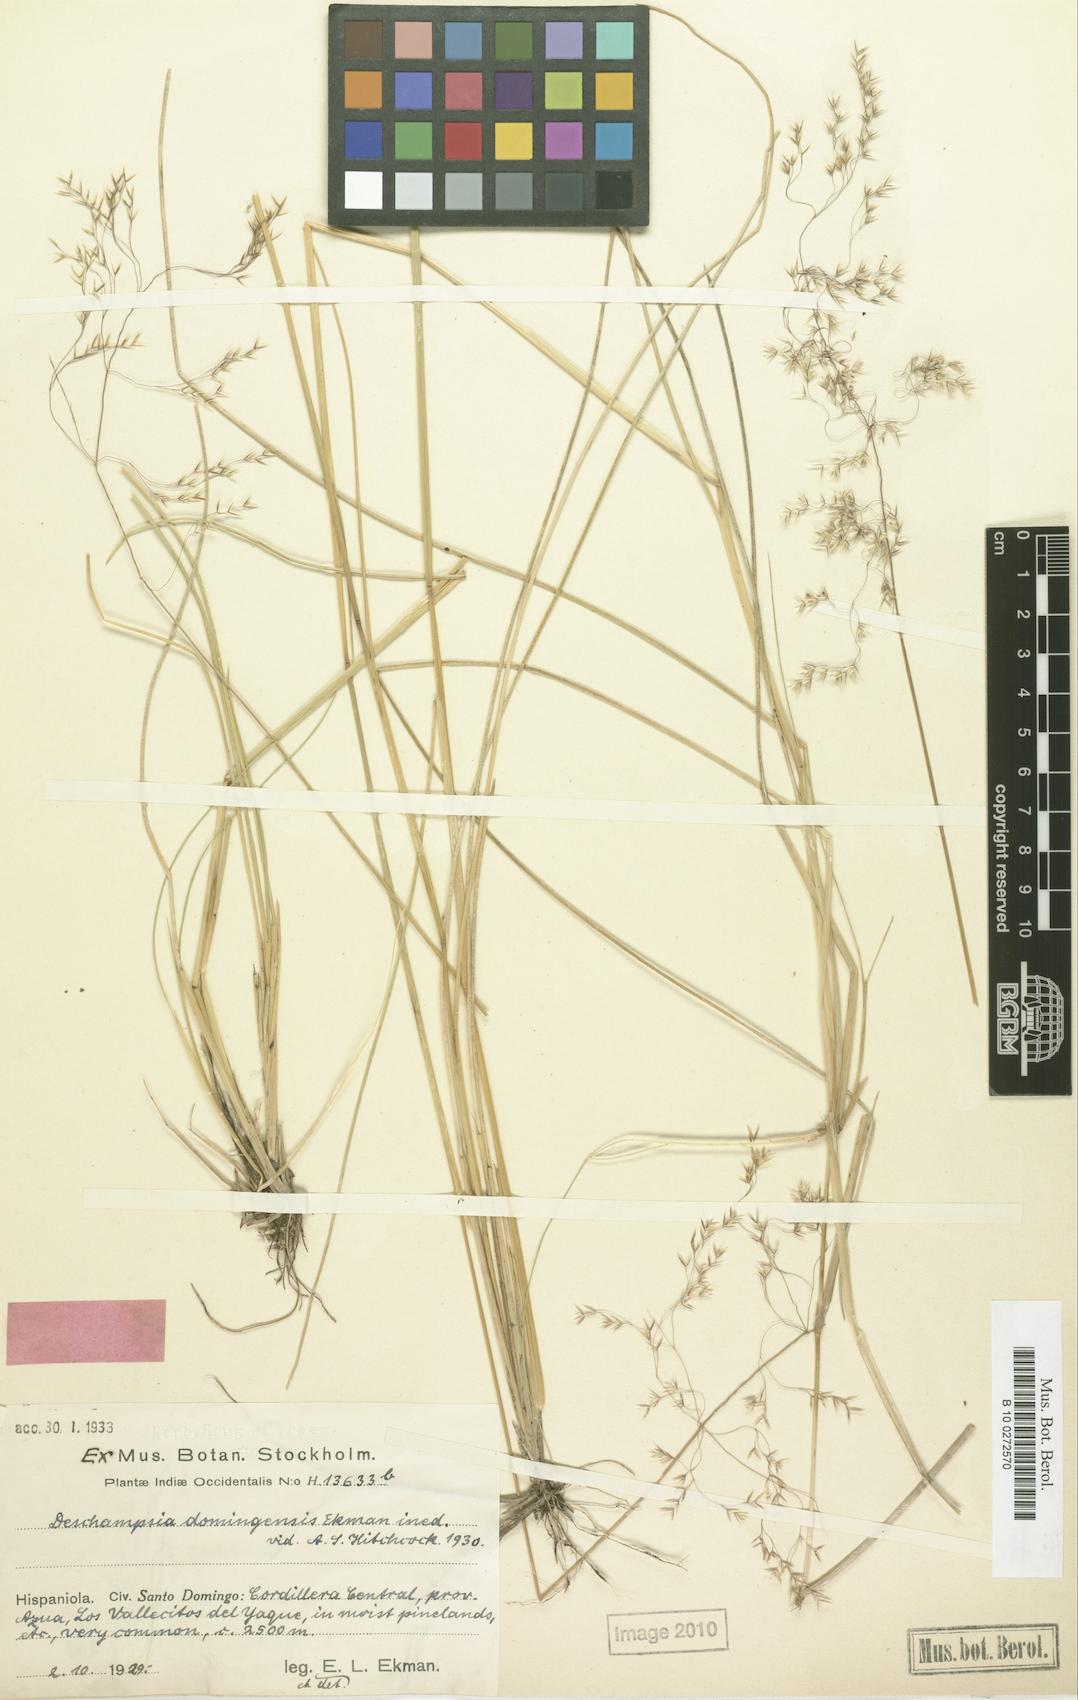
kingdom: Plantae
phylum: Tracheophyta
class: Liliopsida
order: Poales
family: Poaceae
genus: Deschampsia
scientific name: Deschampsia domingensis
